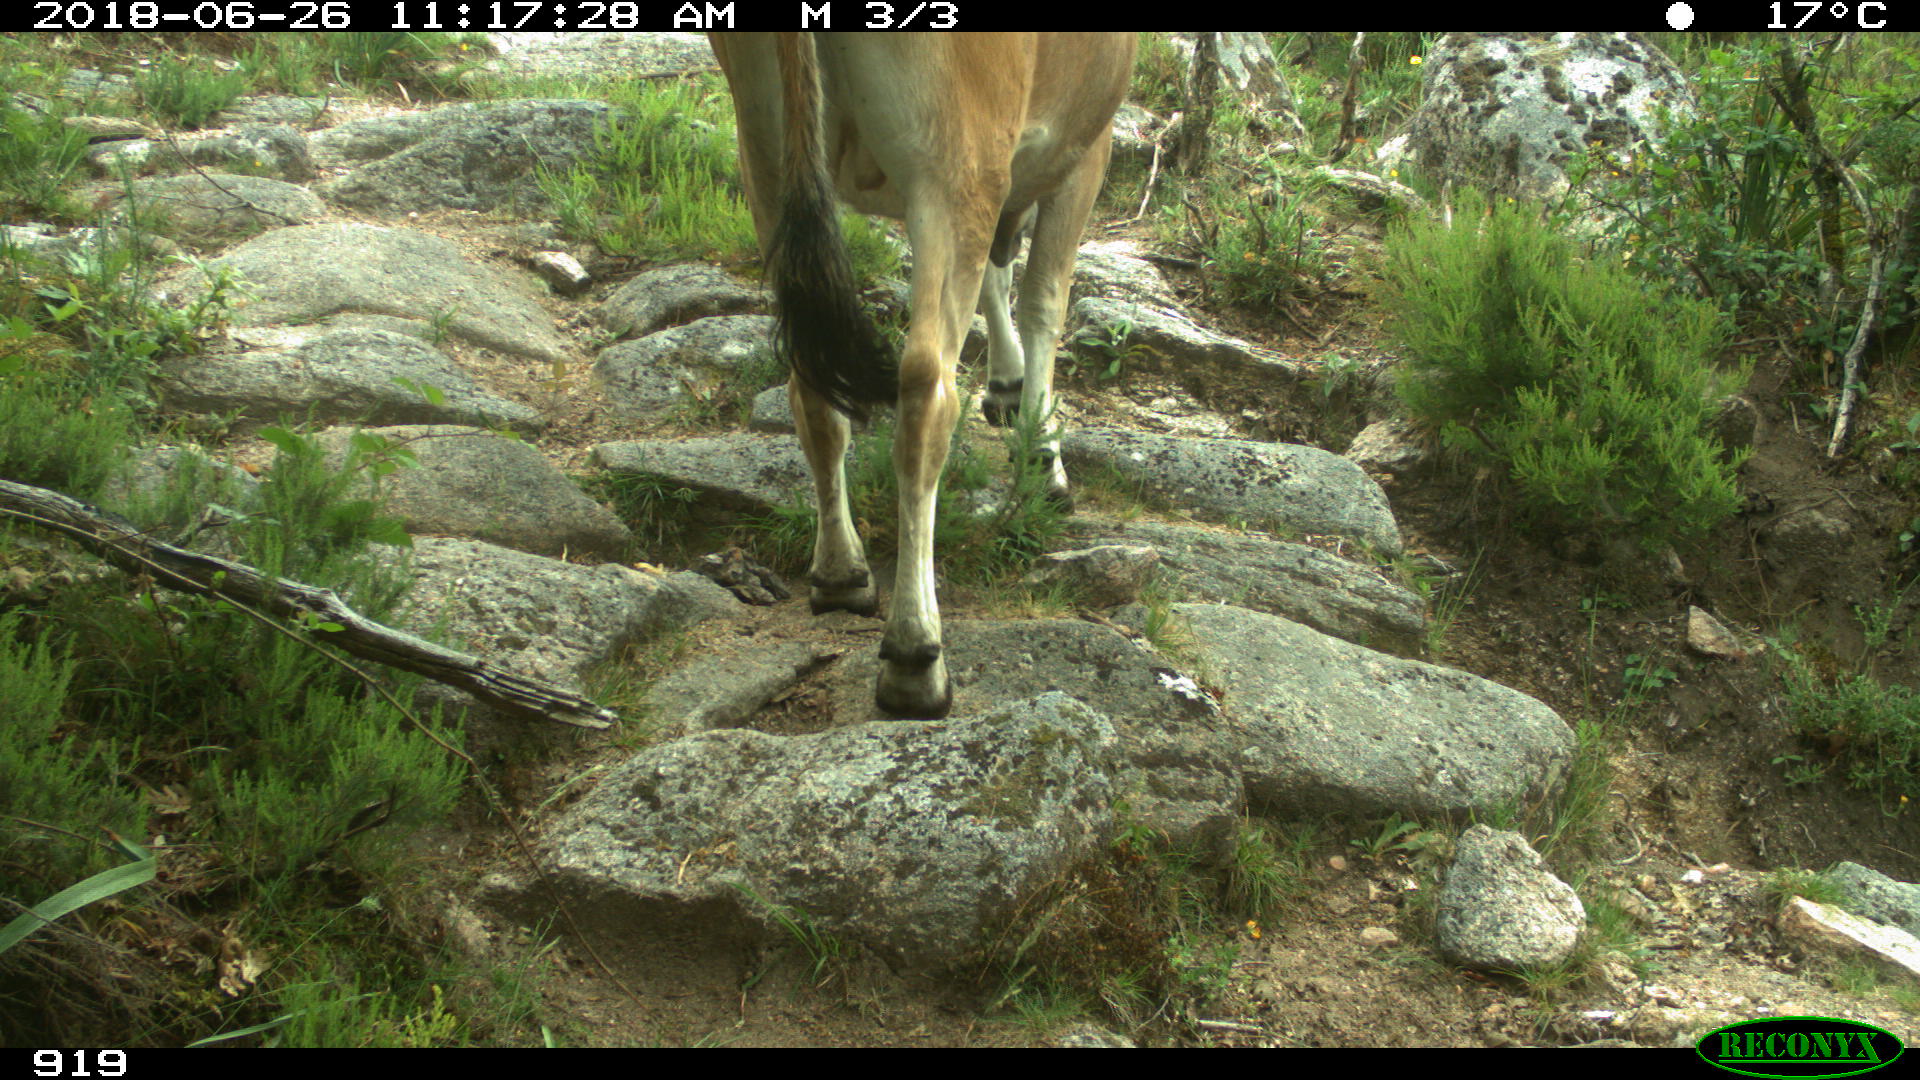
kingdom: Animalia
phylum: Chordata
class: Mammalia
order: Artiodactyla
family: Bovidae
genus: Bos
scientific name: Bos taurus
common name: Domesticated cattle
